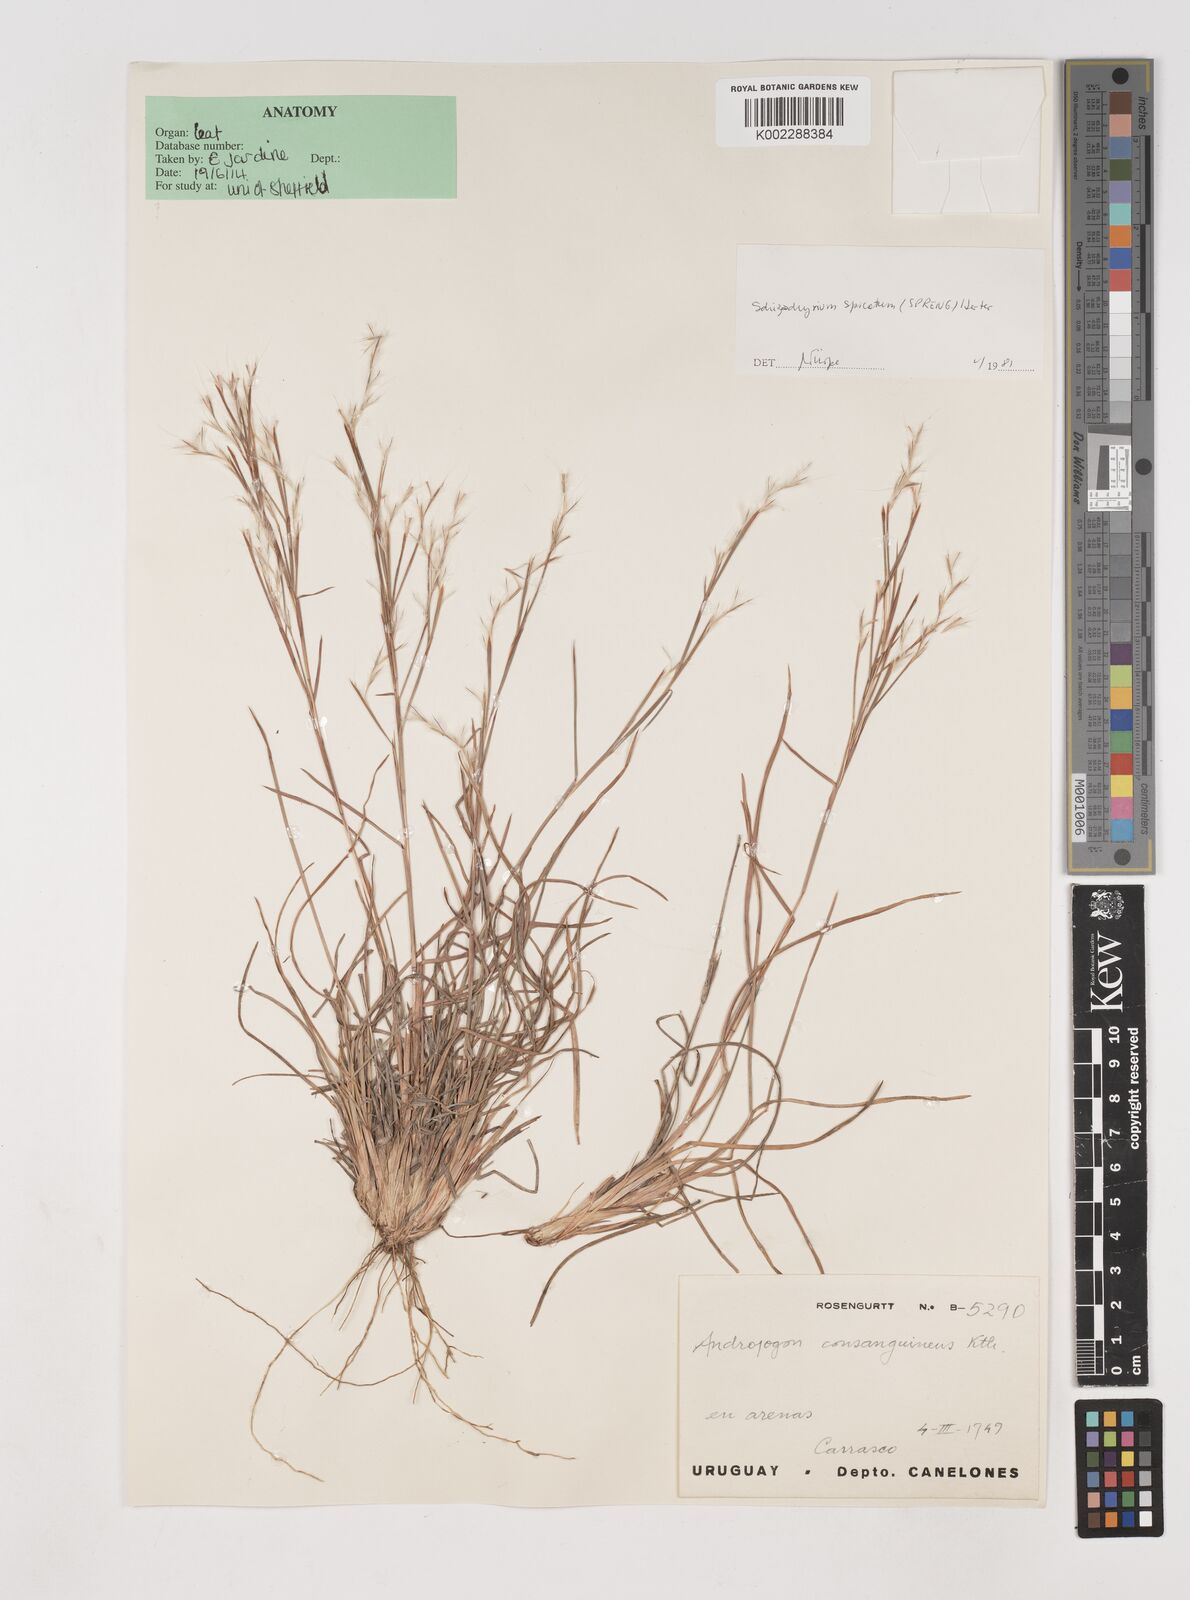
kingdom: Plantae
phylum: Tracheophyta
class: Liliopsida
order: Poales
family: Poaceae
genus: Schizachyrium
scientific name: Schizachyrium spicatum
